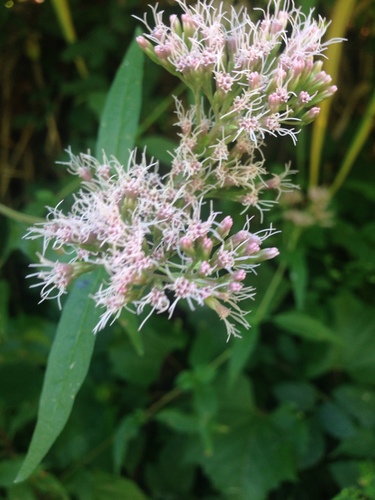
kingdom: Plantae
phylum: Tracheophyta
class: Magnoliopsida
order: Asterales
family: Asteraceae
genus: Eupatorium
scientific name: Eupatorium cannabinum
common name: Hemp-agrimony
